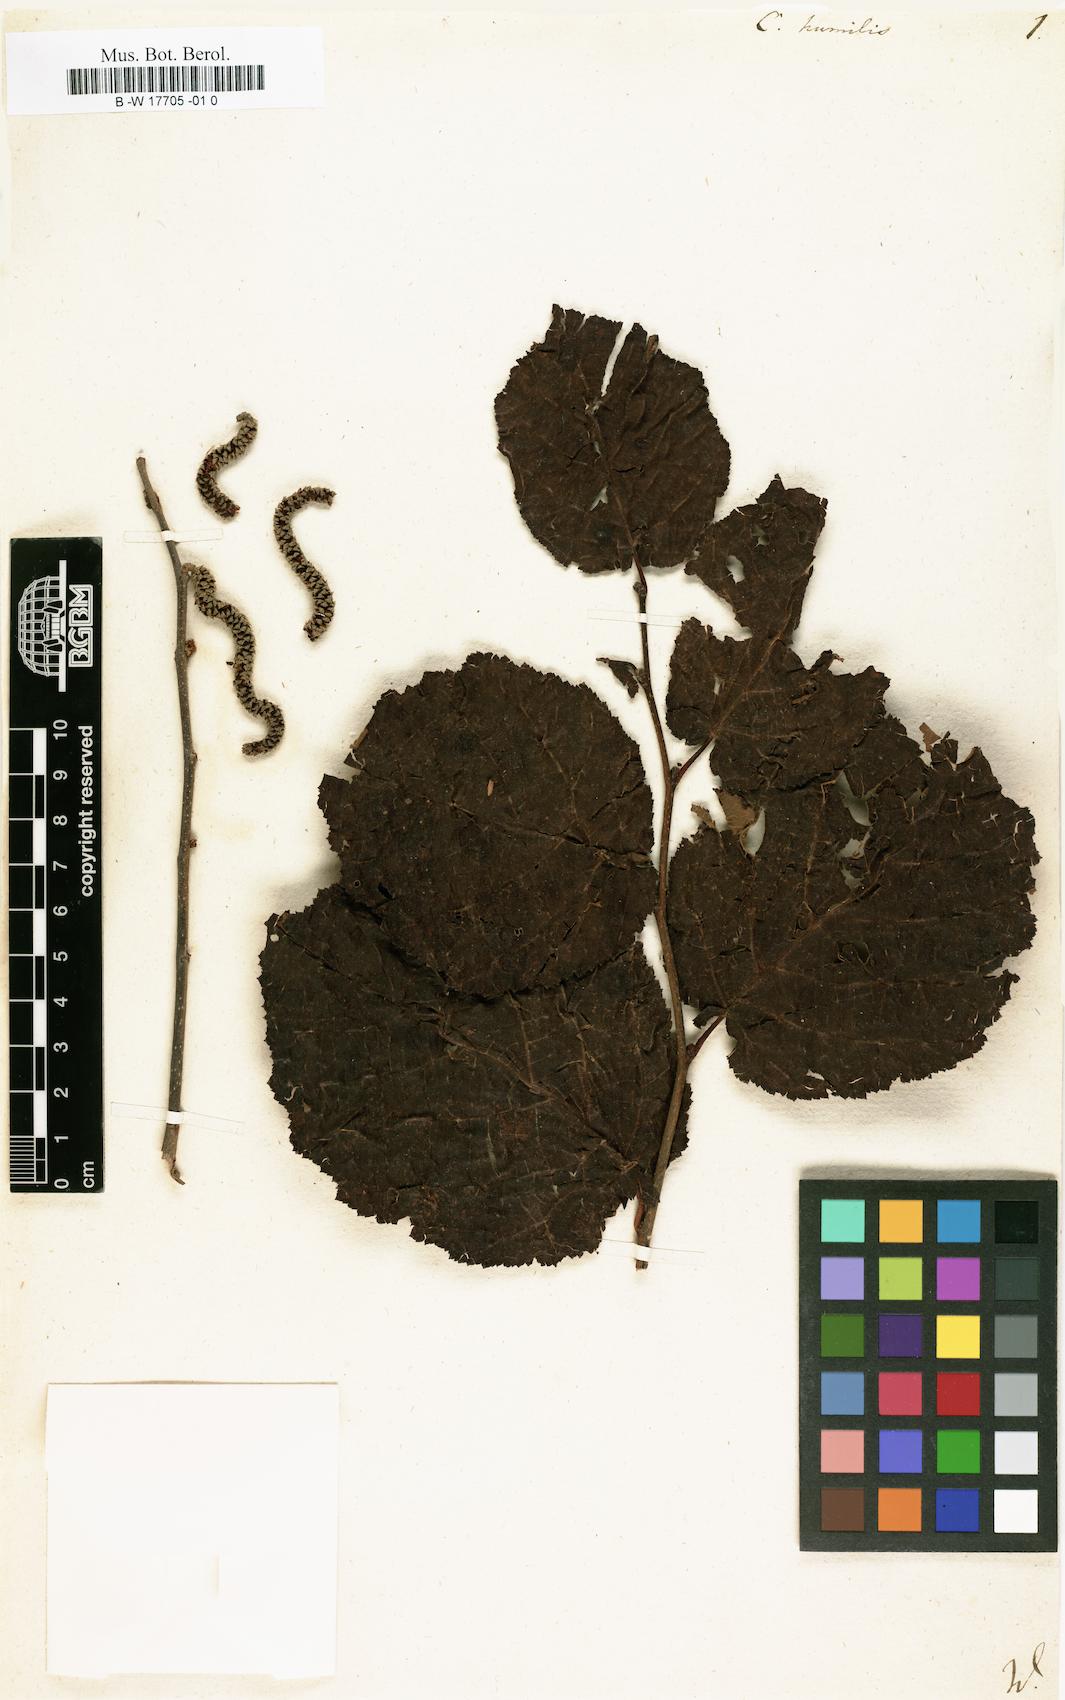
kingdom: Plantae
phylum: Tracheophyta
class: Magnoliopsida
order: Fagales
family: Betulaceae
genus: Corylus
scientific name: Corylus americana
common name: American hazel
